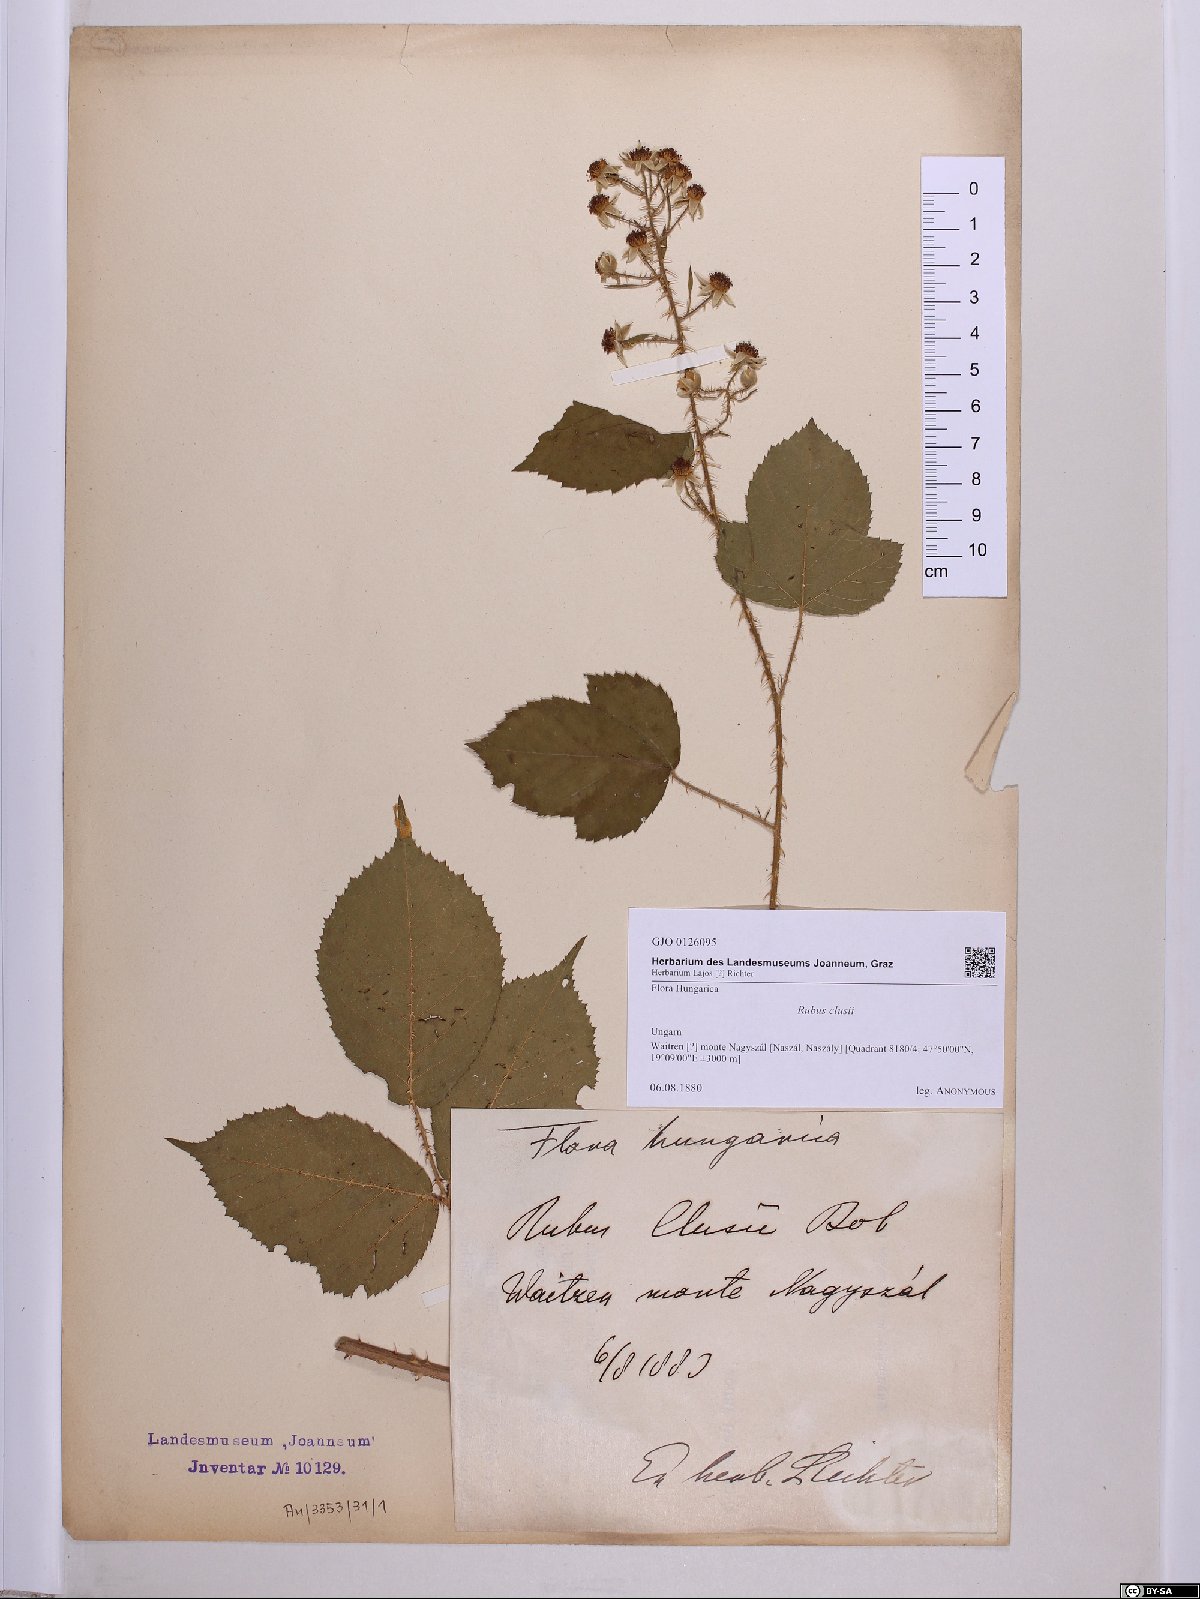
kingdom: Plantae
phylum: Tracheophyta
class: Magnoliopsida
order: Rosales
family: Rosaceae
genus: Rubus
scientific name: Rubus clusii
